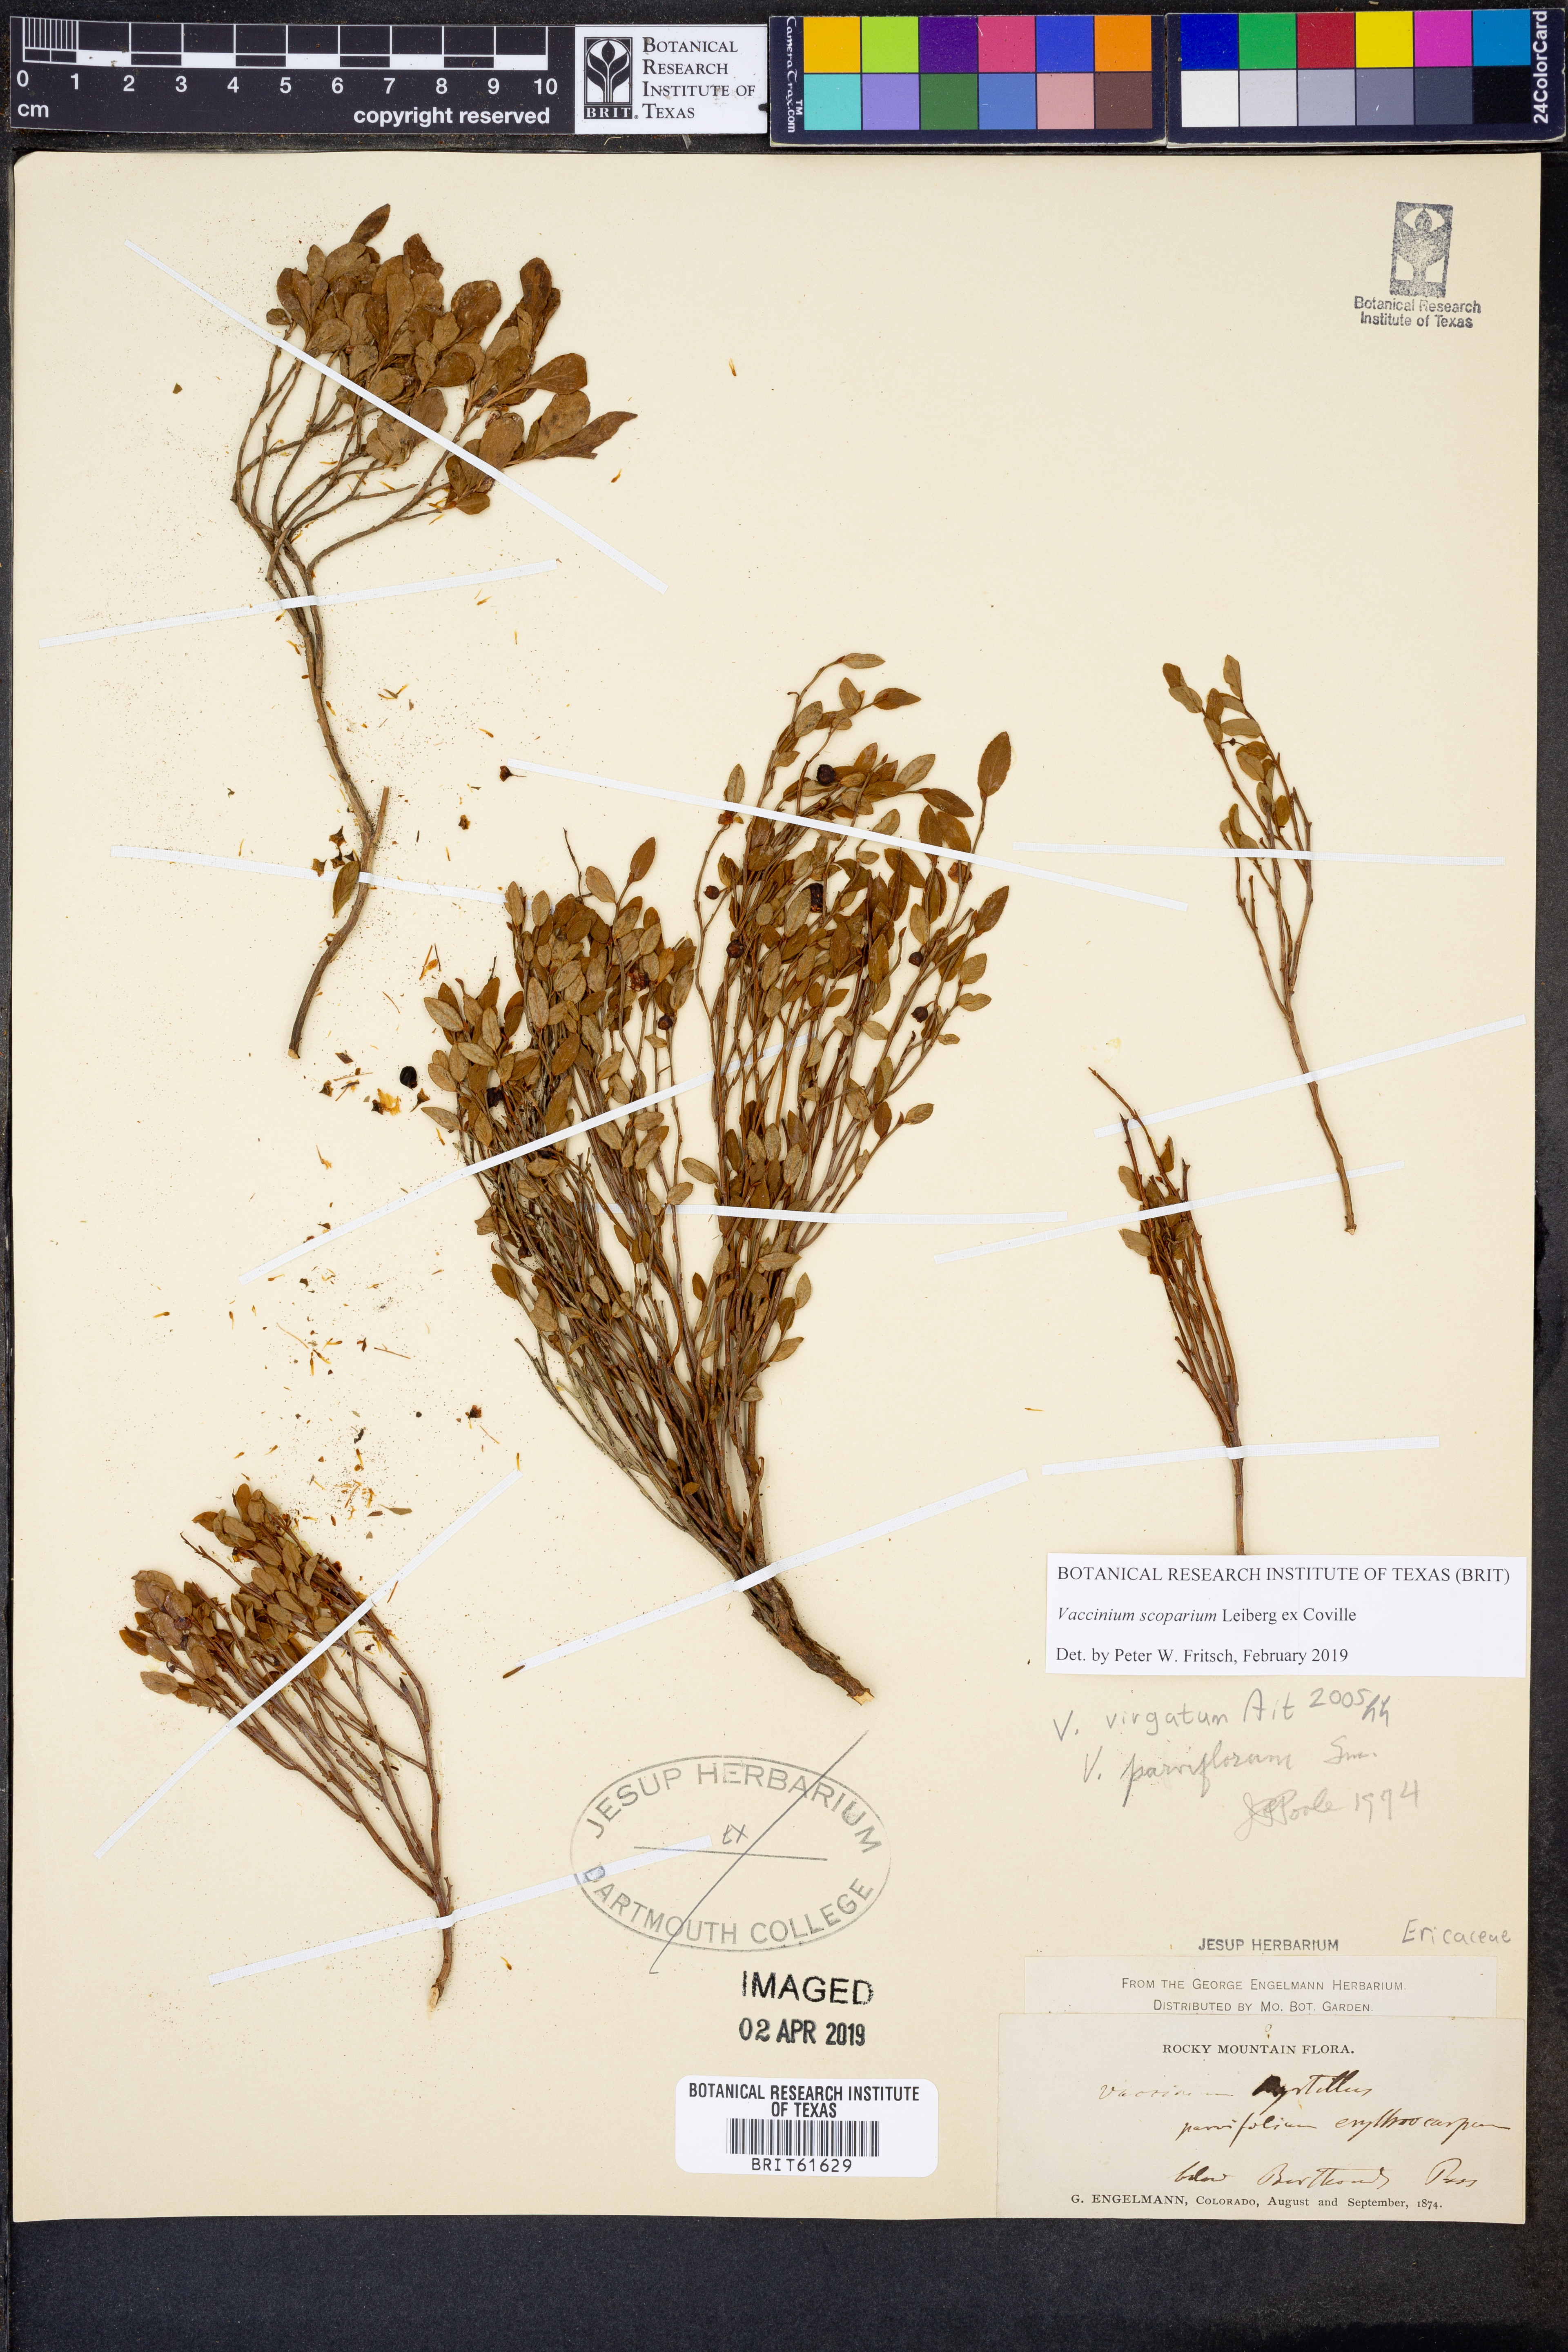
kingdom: Plantae
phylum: Tracheophyta
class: Magnoliopsida
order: Ericales
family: Ericaceae
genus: Vaccinium
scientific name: Vaccinium scoparium
